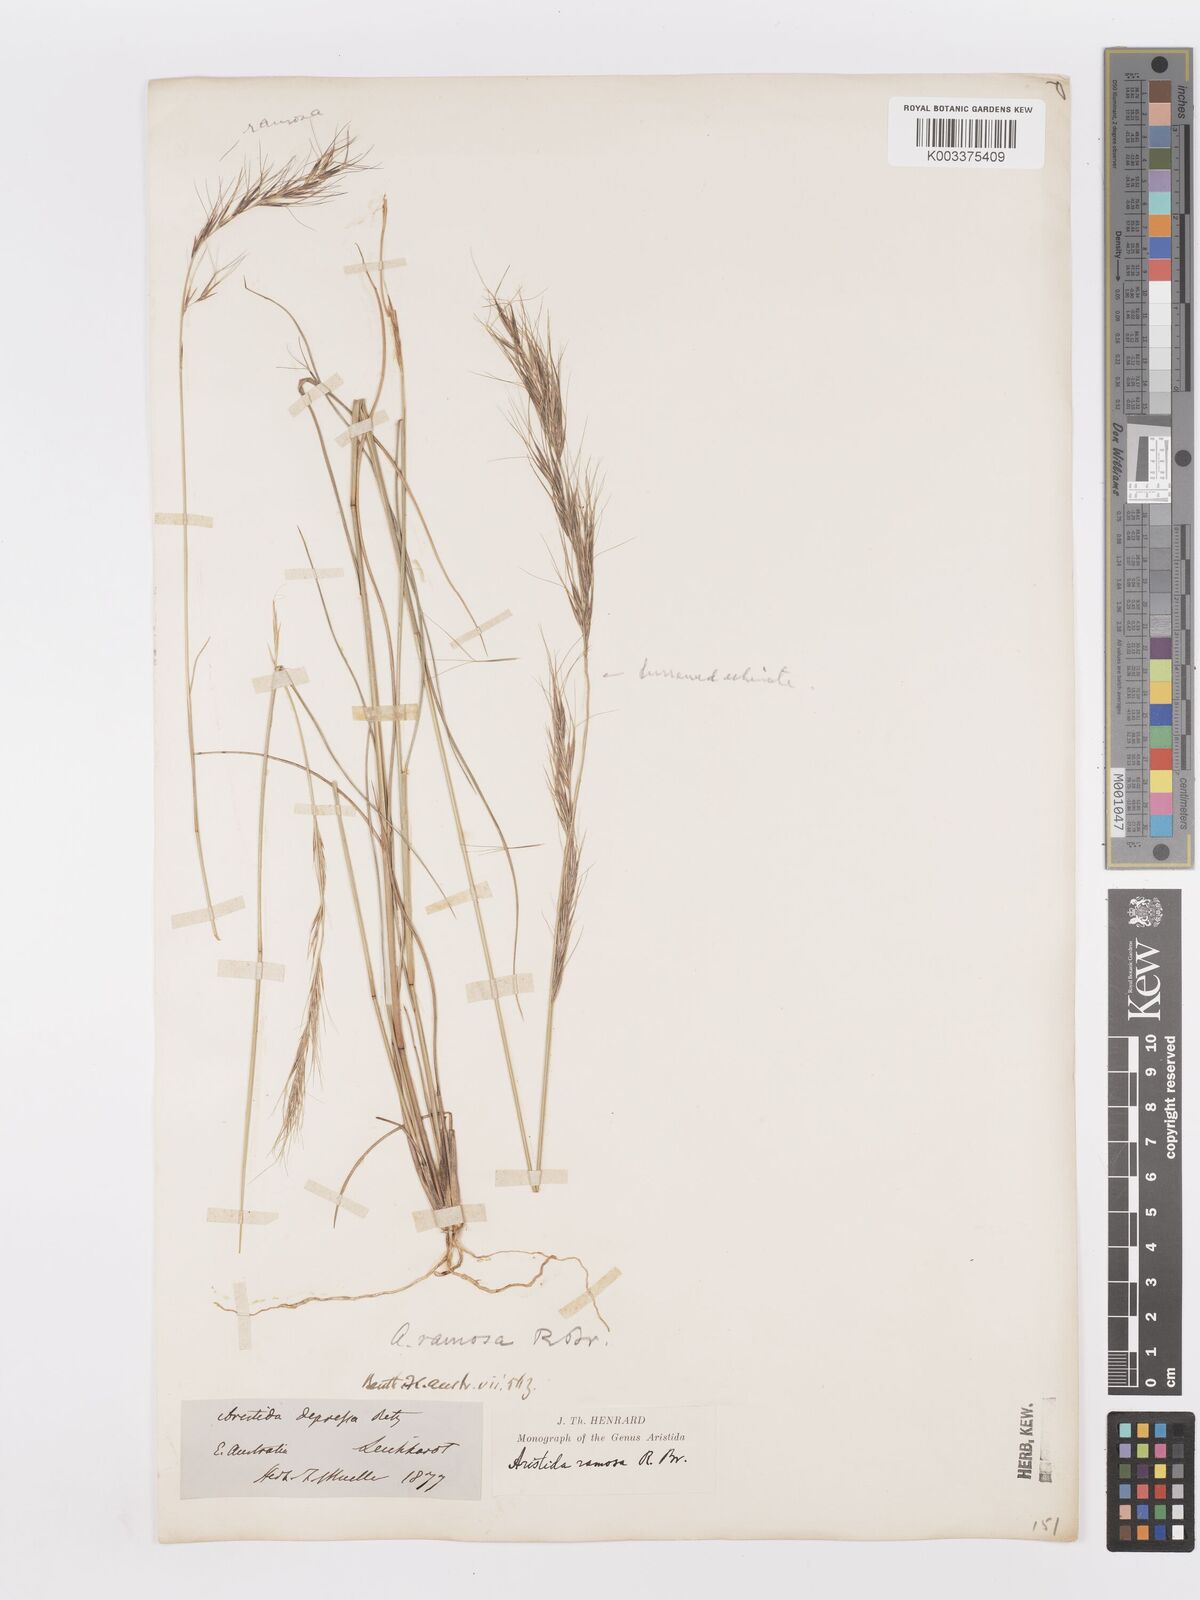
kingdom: Plantae
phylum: Tracheophyta
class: Liliopsida
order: Poales
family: Poaceae
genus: Aristida
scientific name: Aristida ramosa
